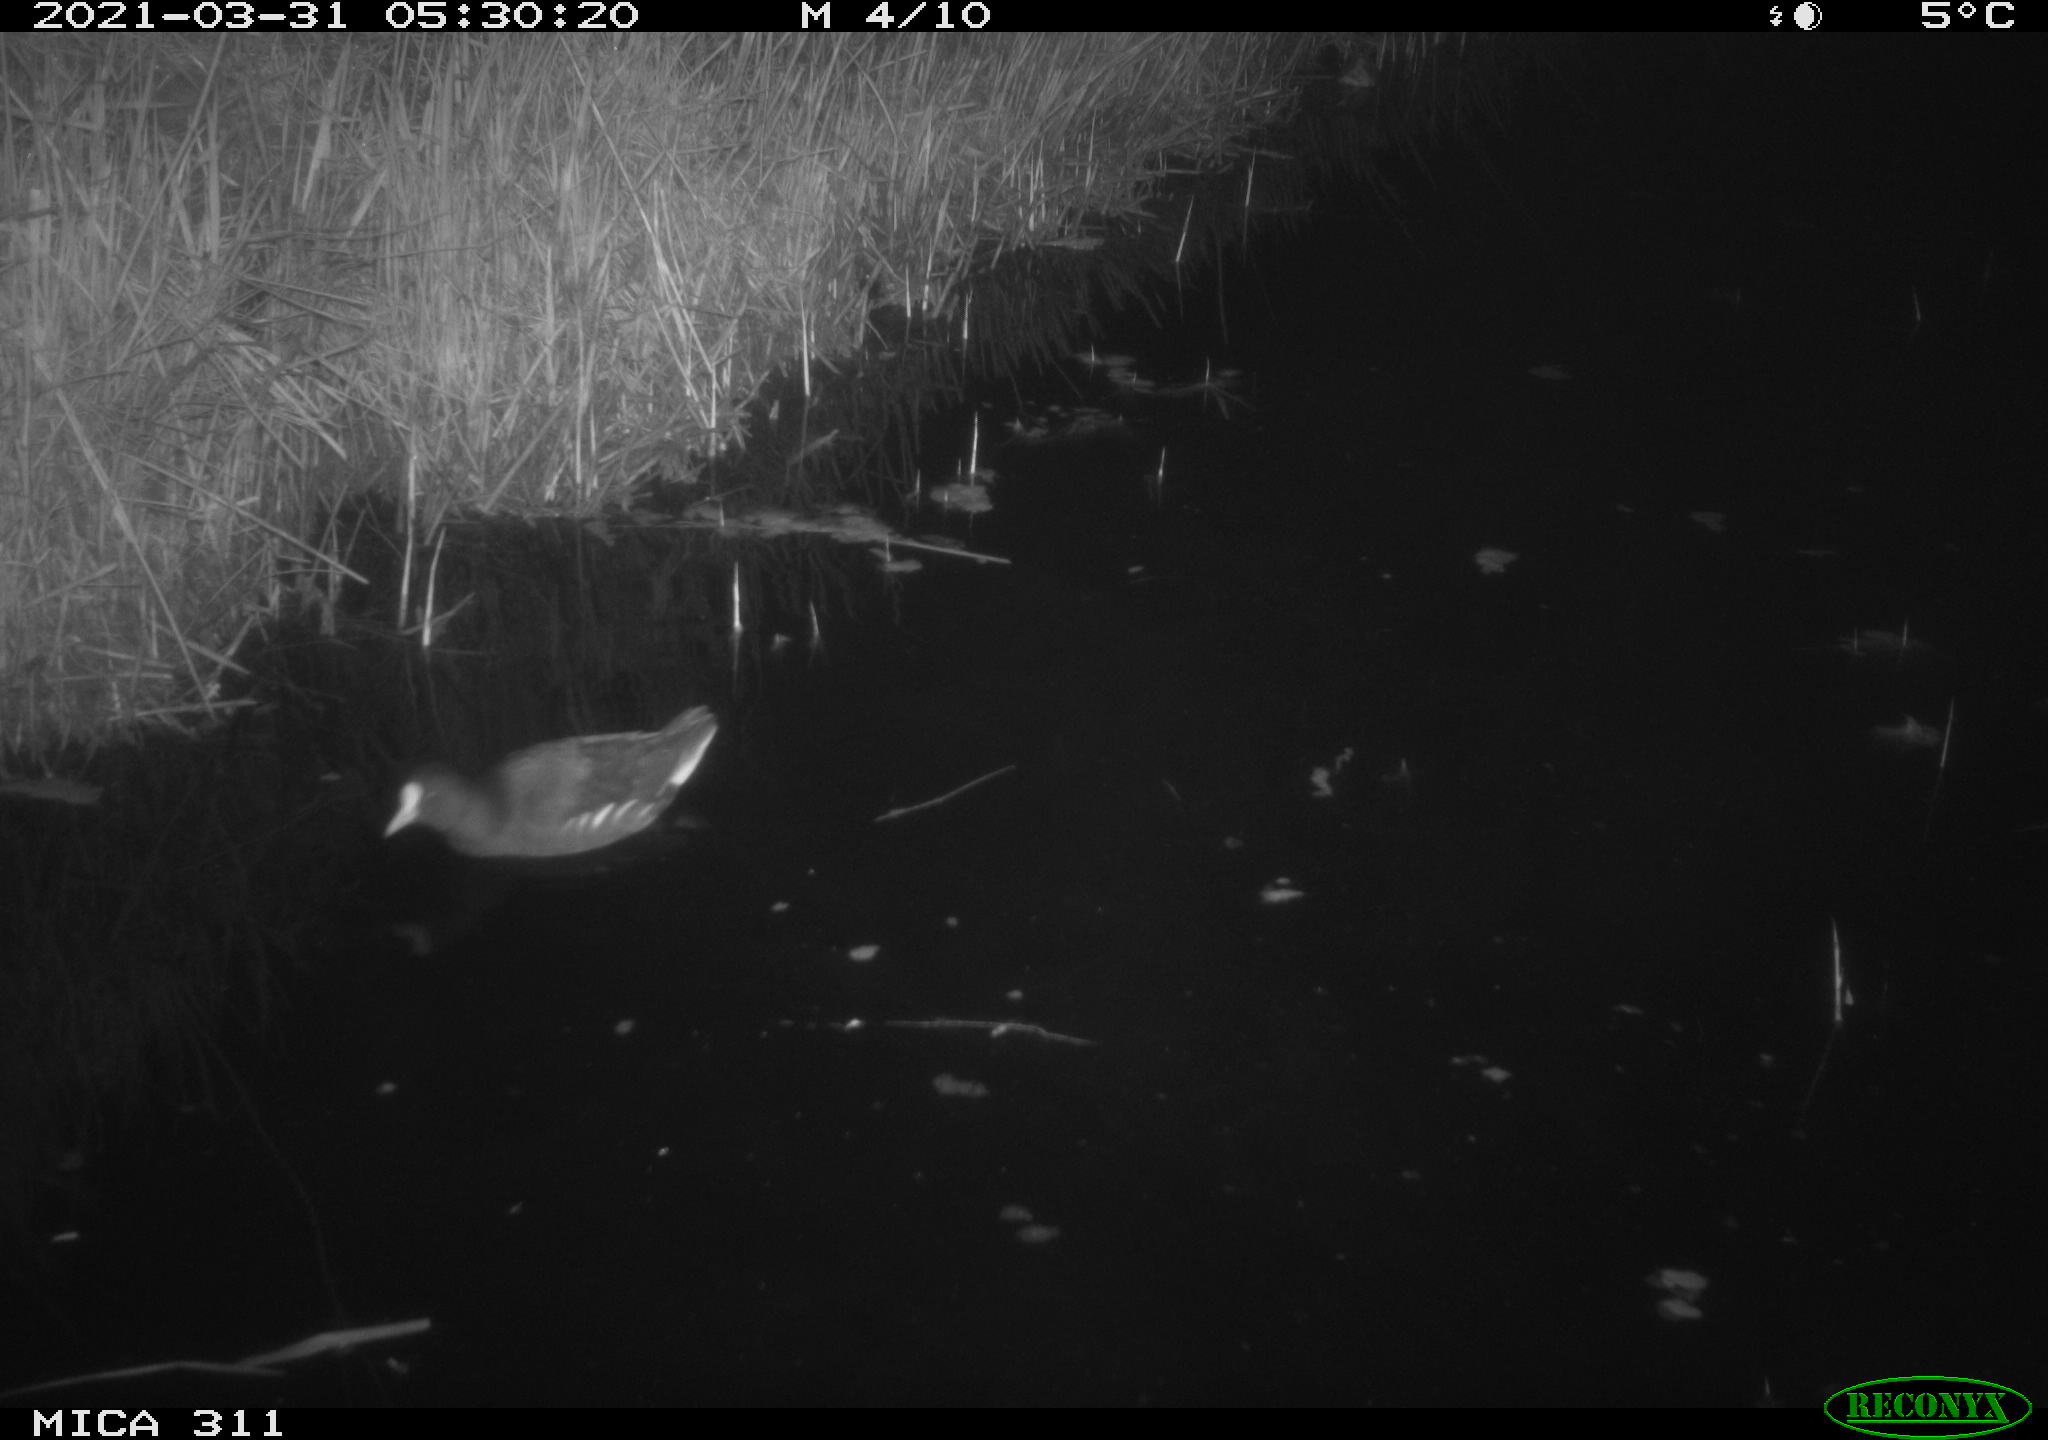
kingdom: Animalia
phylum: Chordata
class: Aves
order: Gruiformes
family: Rallidae
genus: Gallinula
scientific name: Gallinula chloropus
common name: Common moorhen
